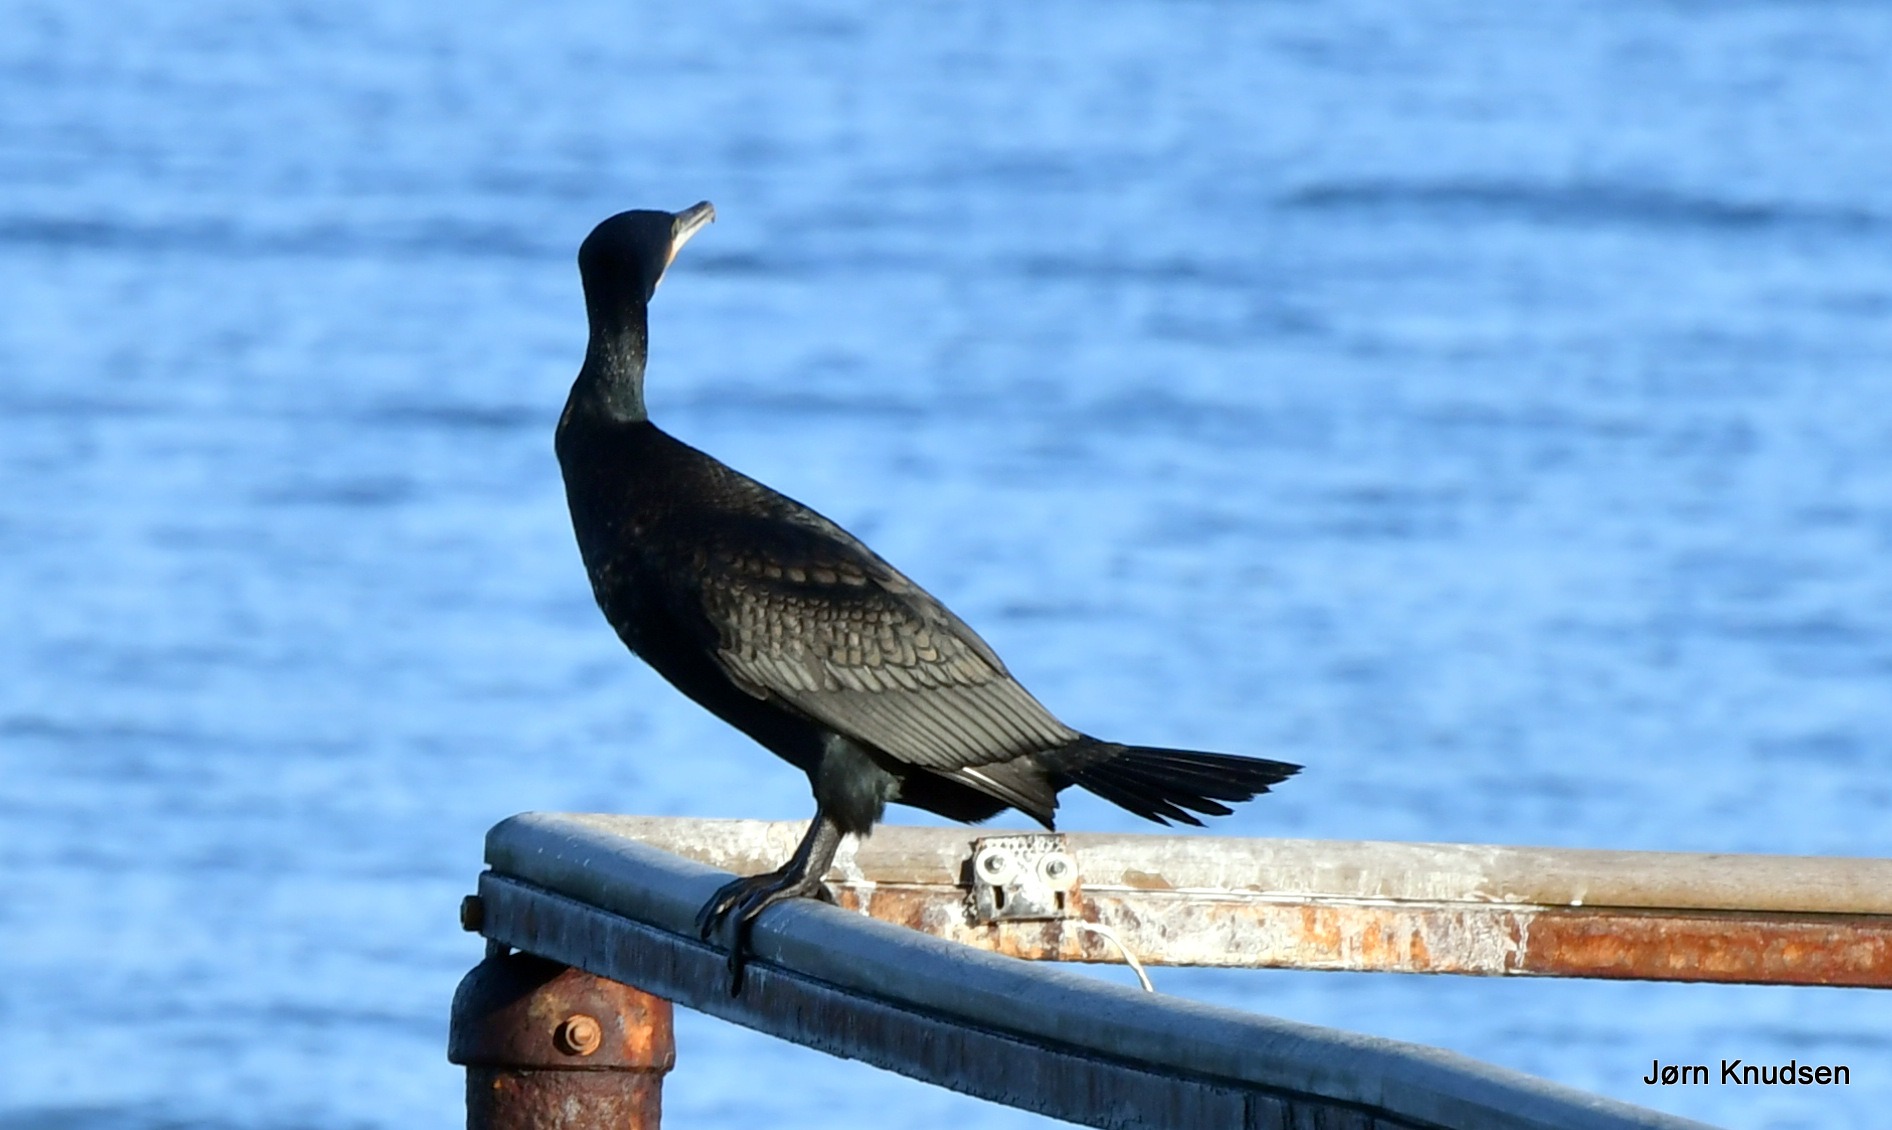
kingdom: Animalia
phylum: Chordata
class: Aves
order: Suliformes
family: Phalacrocoracidae
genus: Phalacrocorax
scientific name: Phalacrocorax carbo
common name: Skarv
